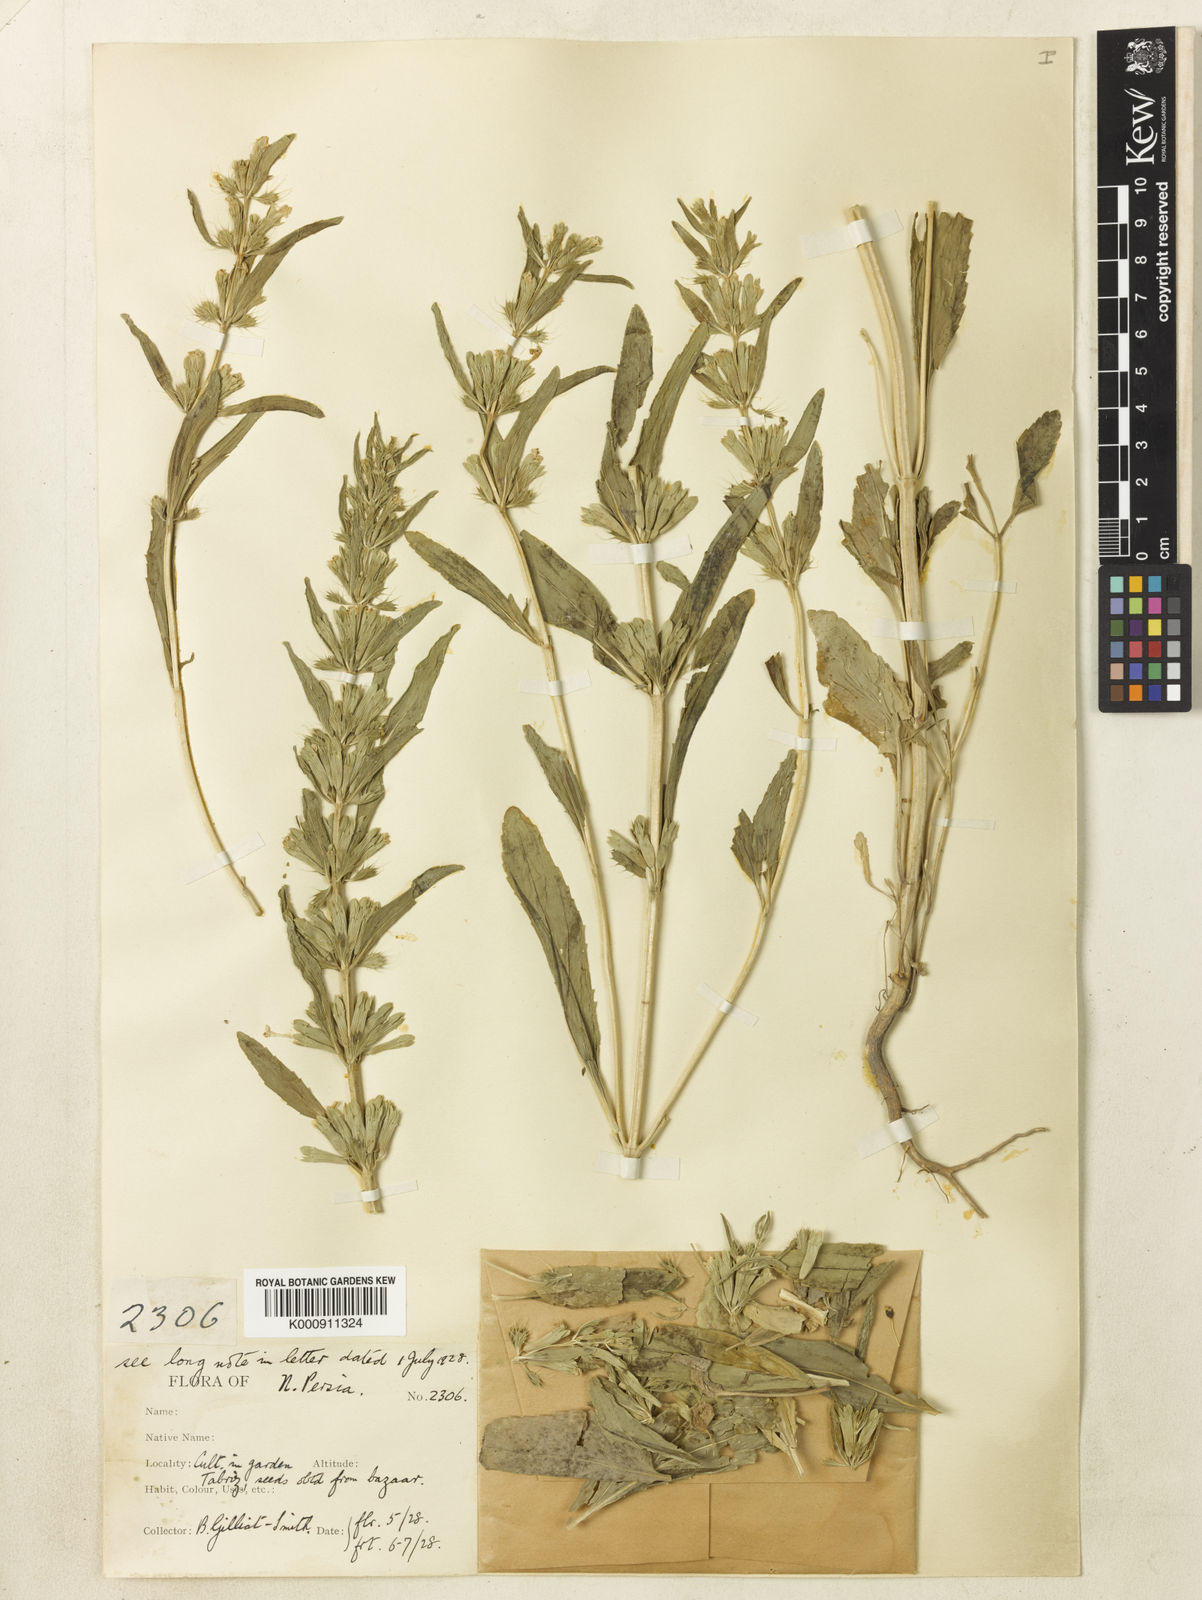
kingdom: Plantae
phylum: Tracheophyta
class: Magnoliopsida
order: Lamiales
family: Lamiaceae
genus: Lallemantia
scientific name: Lallemantia iberica
